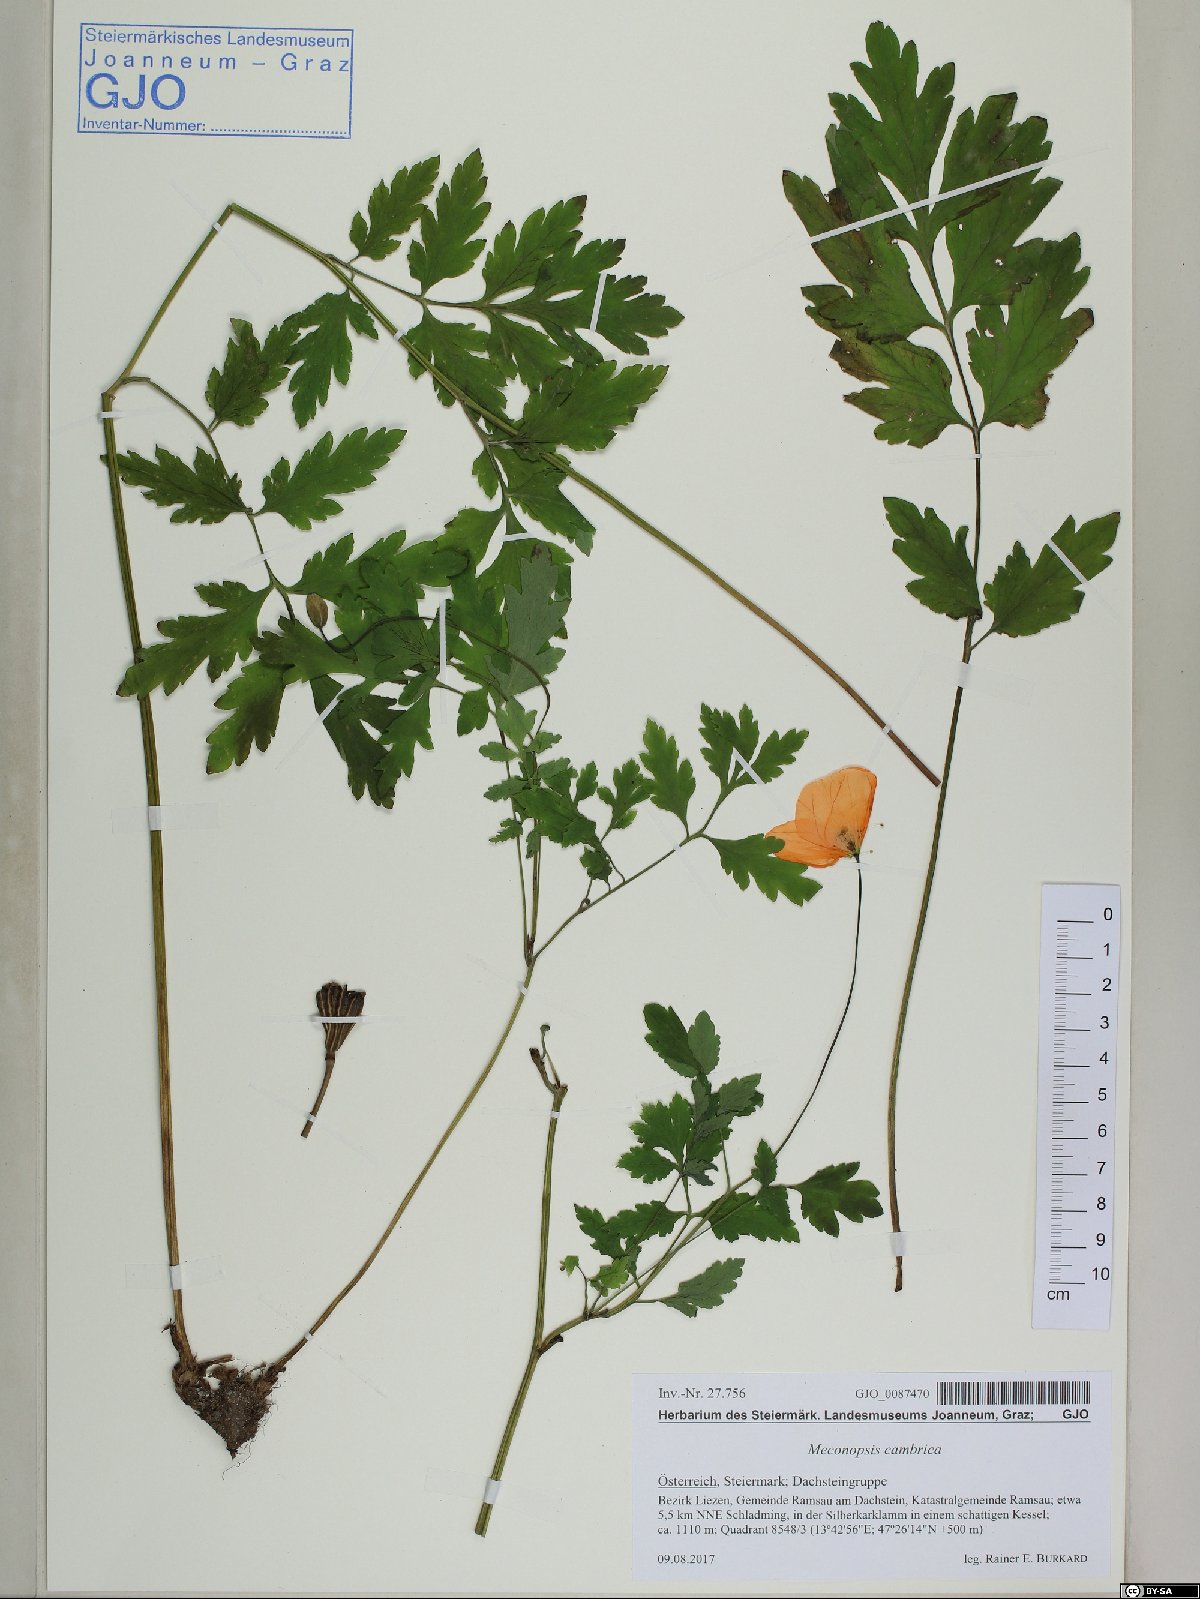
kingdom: Plantae
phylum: Tracheophyta
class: Magnoliopsida
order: Ranunculales
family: Papaveraceae
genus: Papaver
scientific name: Papaver cambricum
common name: Poppy
